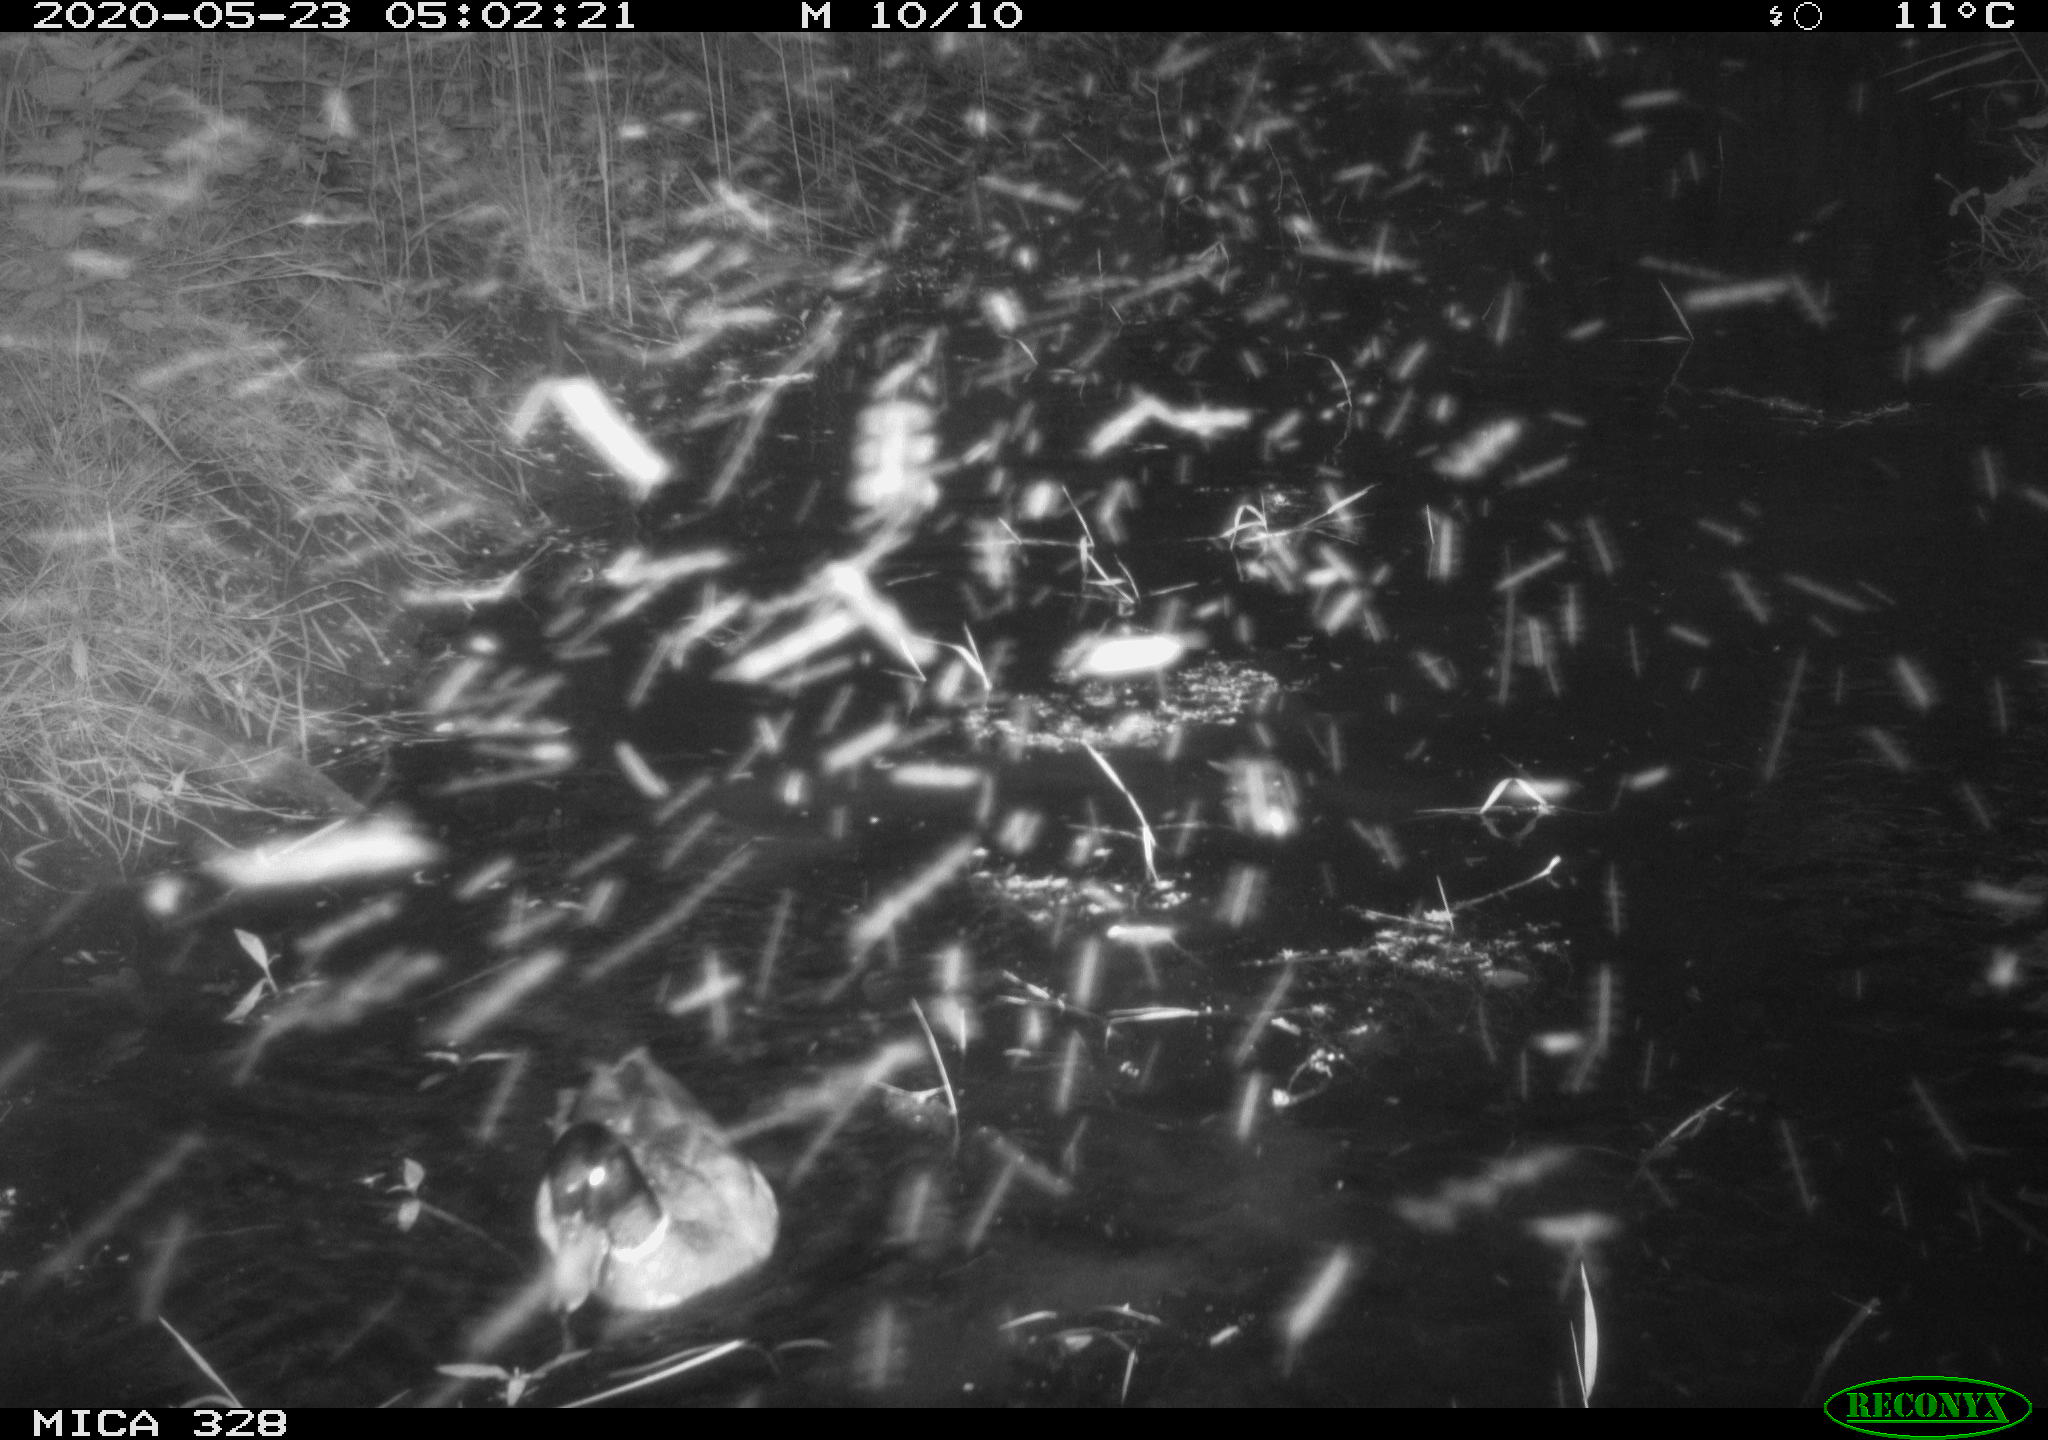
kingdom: Animalia
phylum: Chordata
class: Aves
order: Anseriformes
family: Anatidae
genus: Anas
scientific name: Anas platyrhynchos
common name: Mallard
